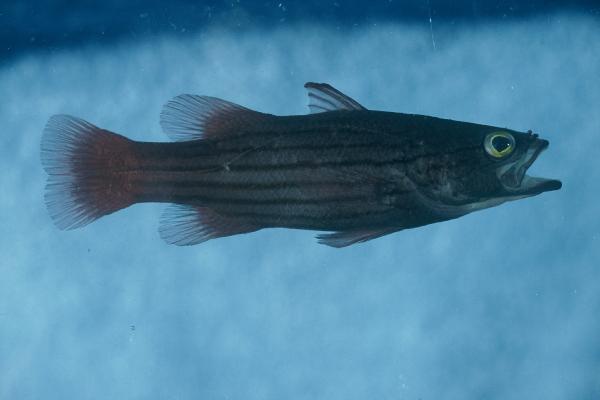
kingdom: Animalia
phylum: Chordata
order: Perciformes
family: Serranidae
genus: Liopropoma
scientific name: Liopropoma susumi
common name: Striped basslet
